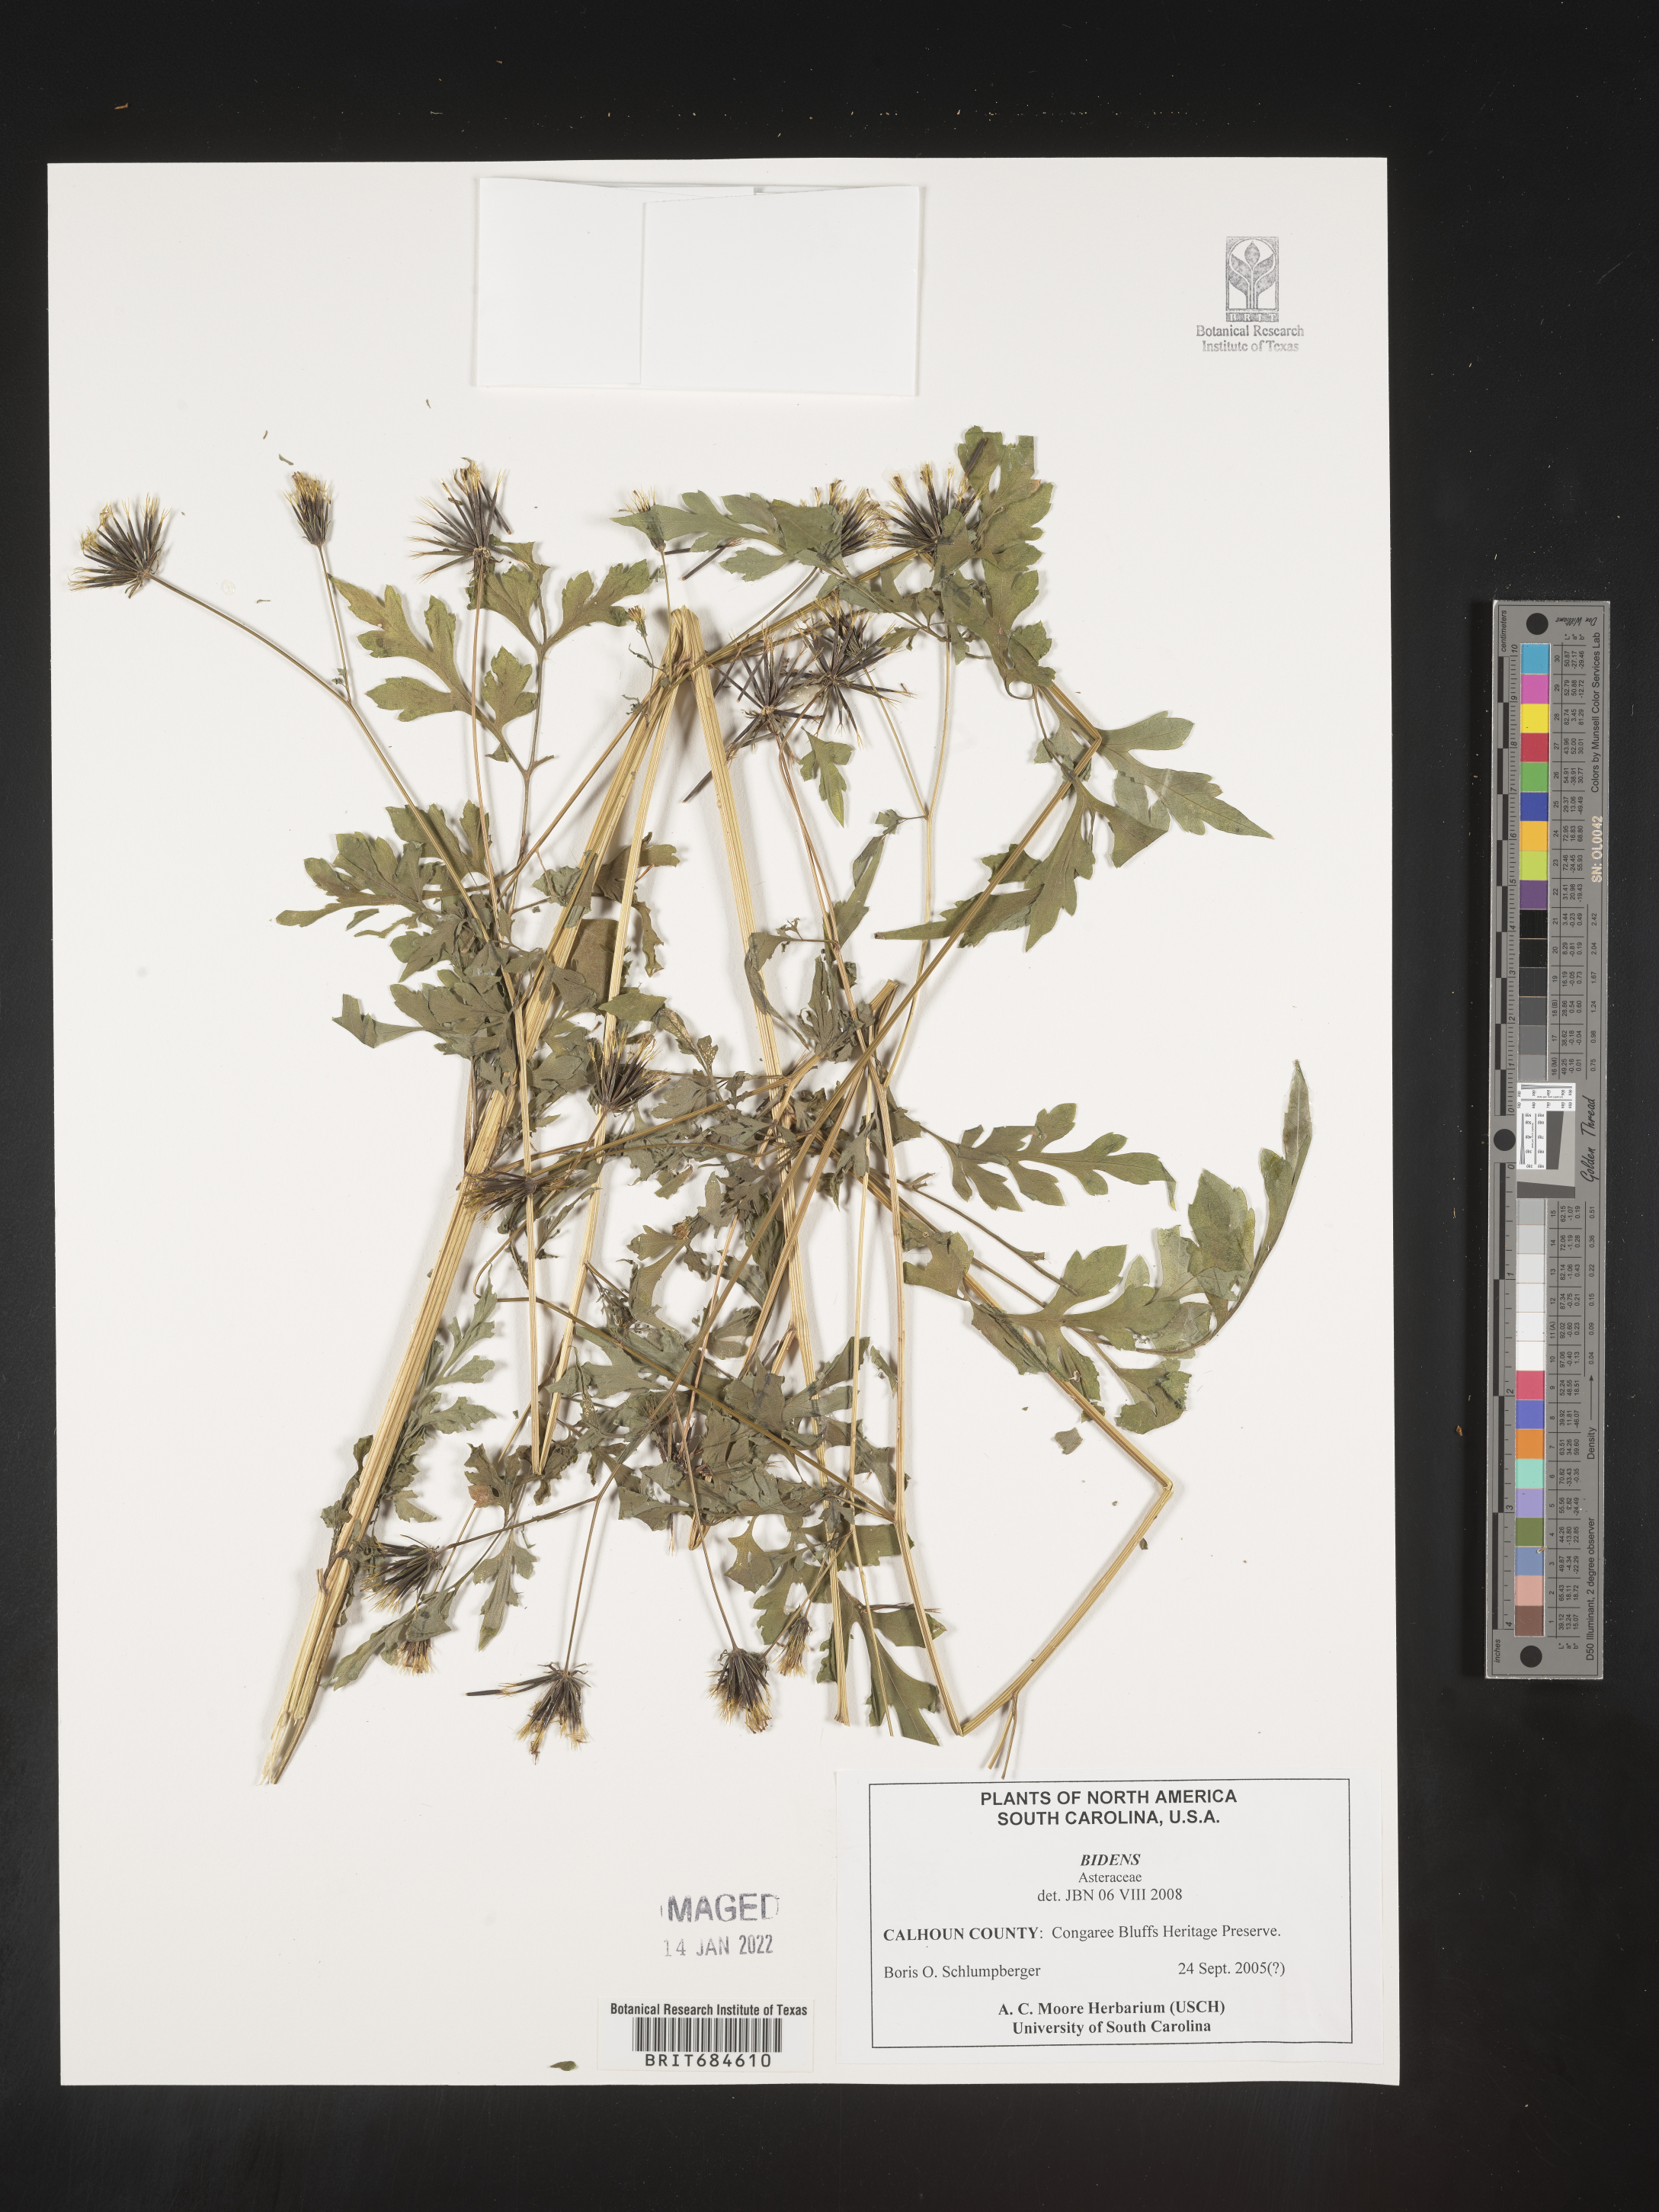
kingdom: Plantae
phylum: Tracheophyta
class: Magnoliopsida
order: Asterales
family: Asteraceae
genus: Bidens
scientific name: Bidens
